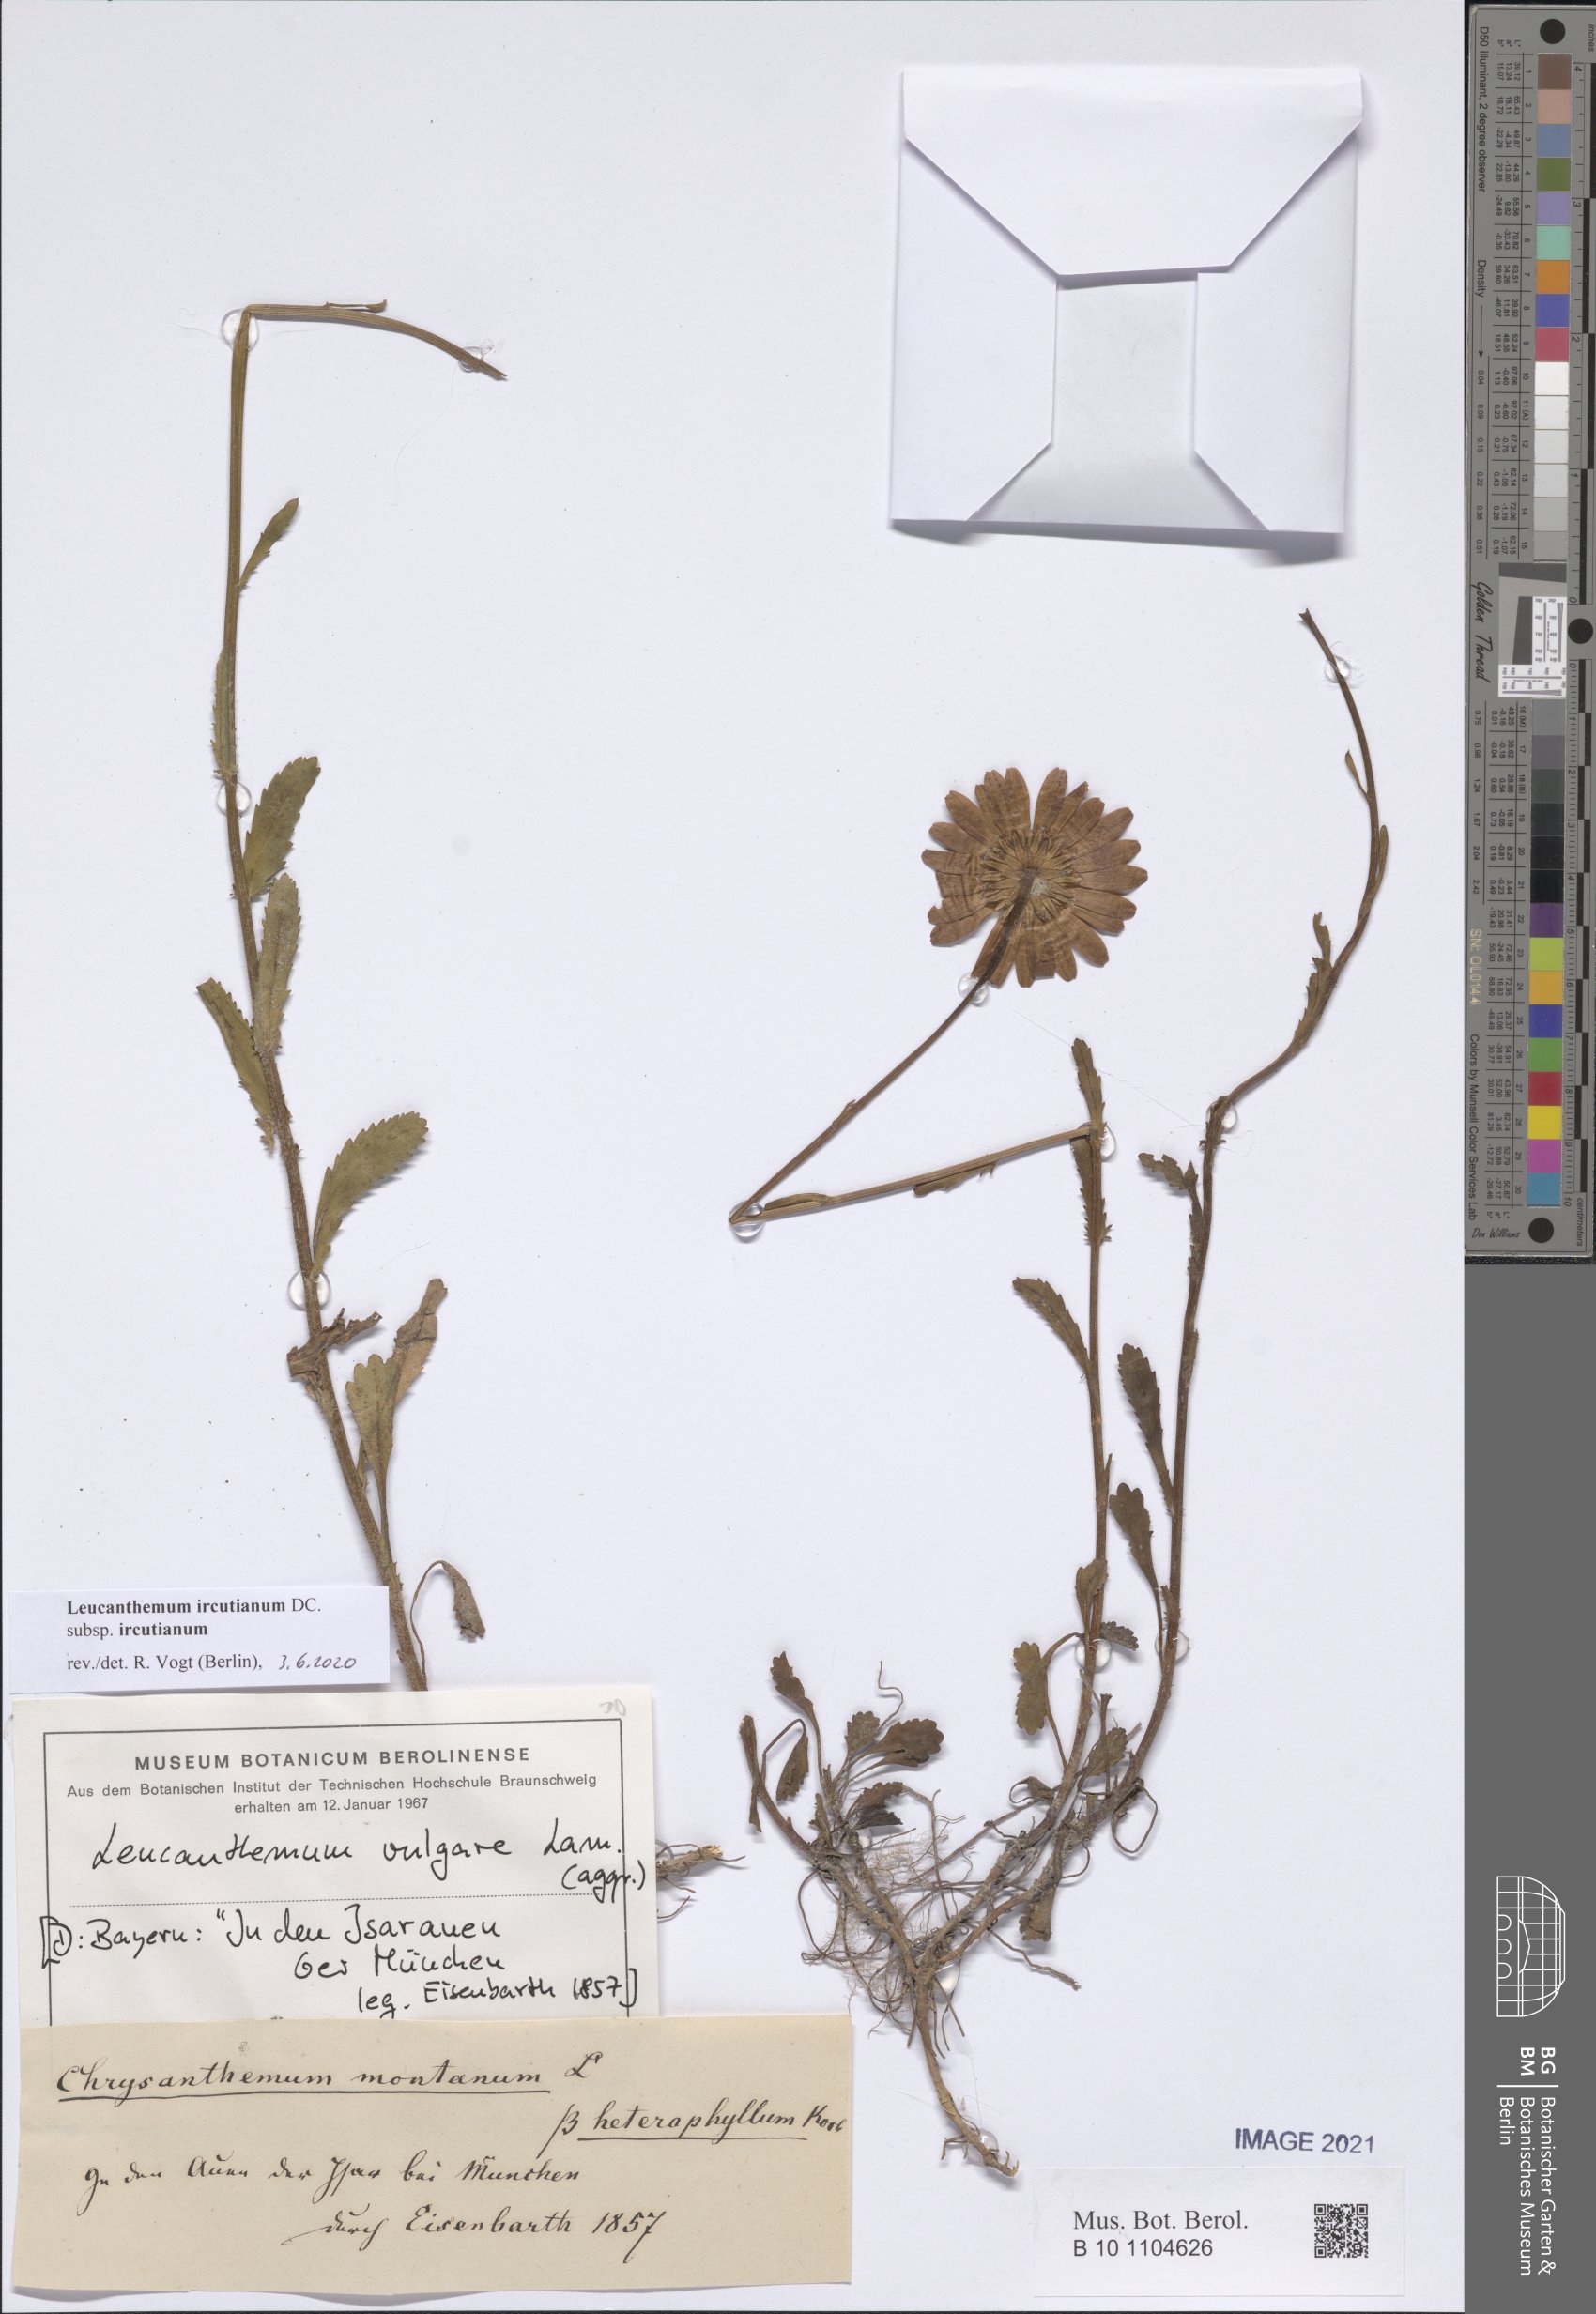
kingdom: Plantae
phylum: Tracheophyta
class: Magnoliopsida
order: Asterales
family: Asteraceae
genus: Leucanthemum
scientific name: Leucanthemum ircutianum
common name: Daisy
